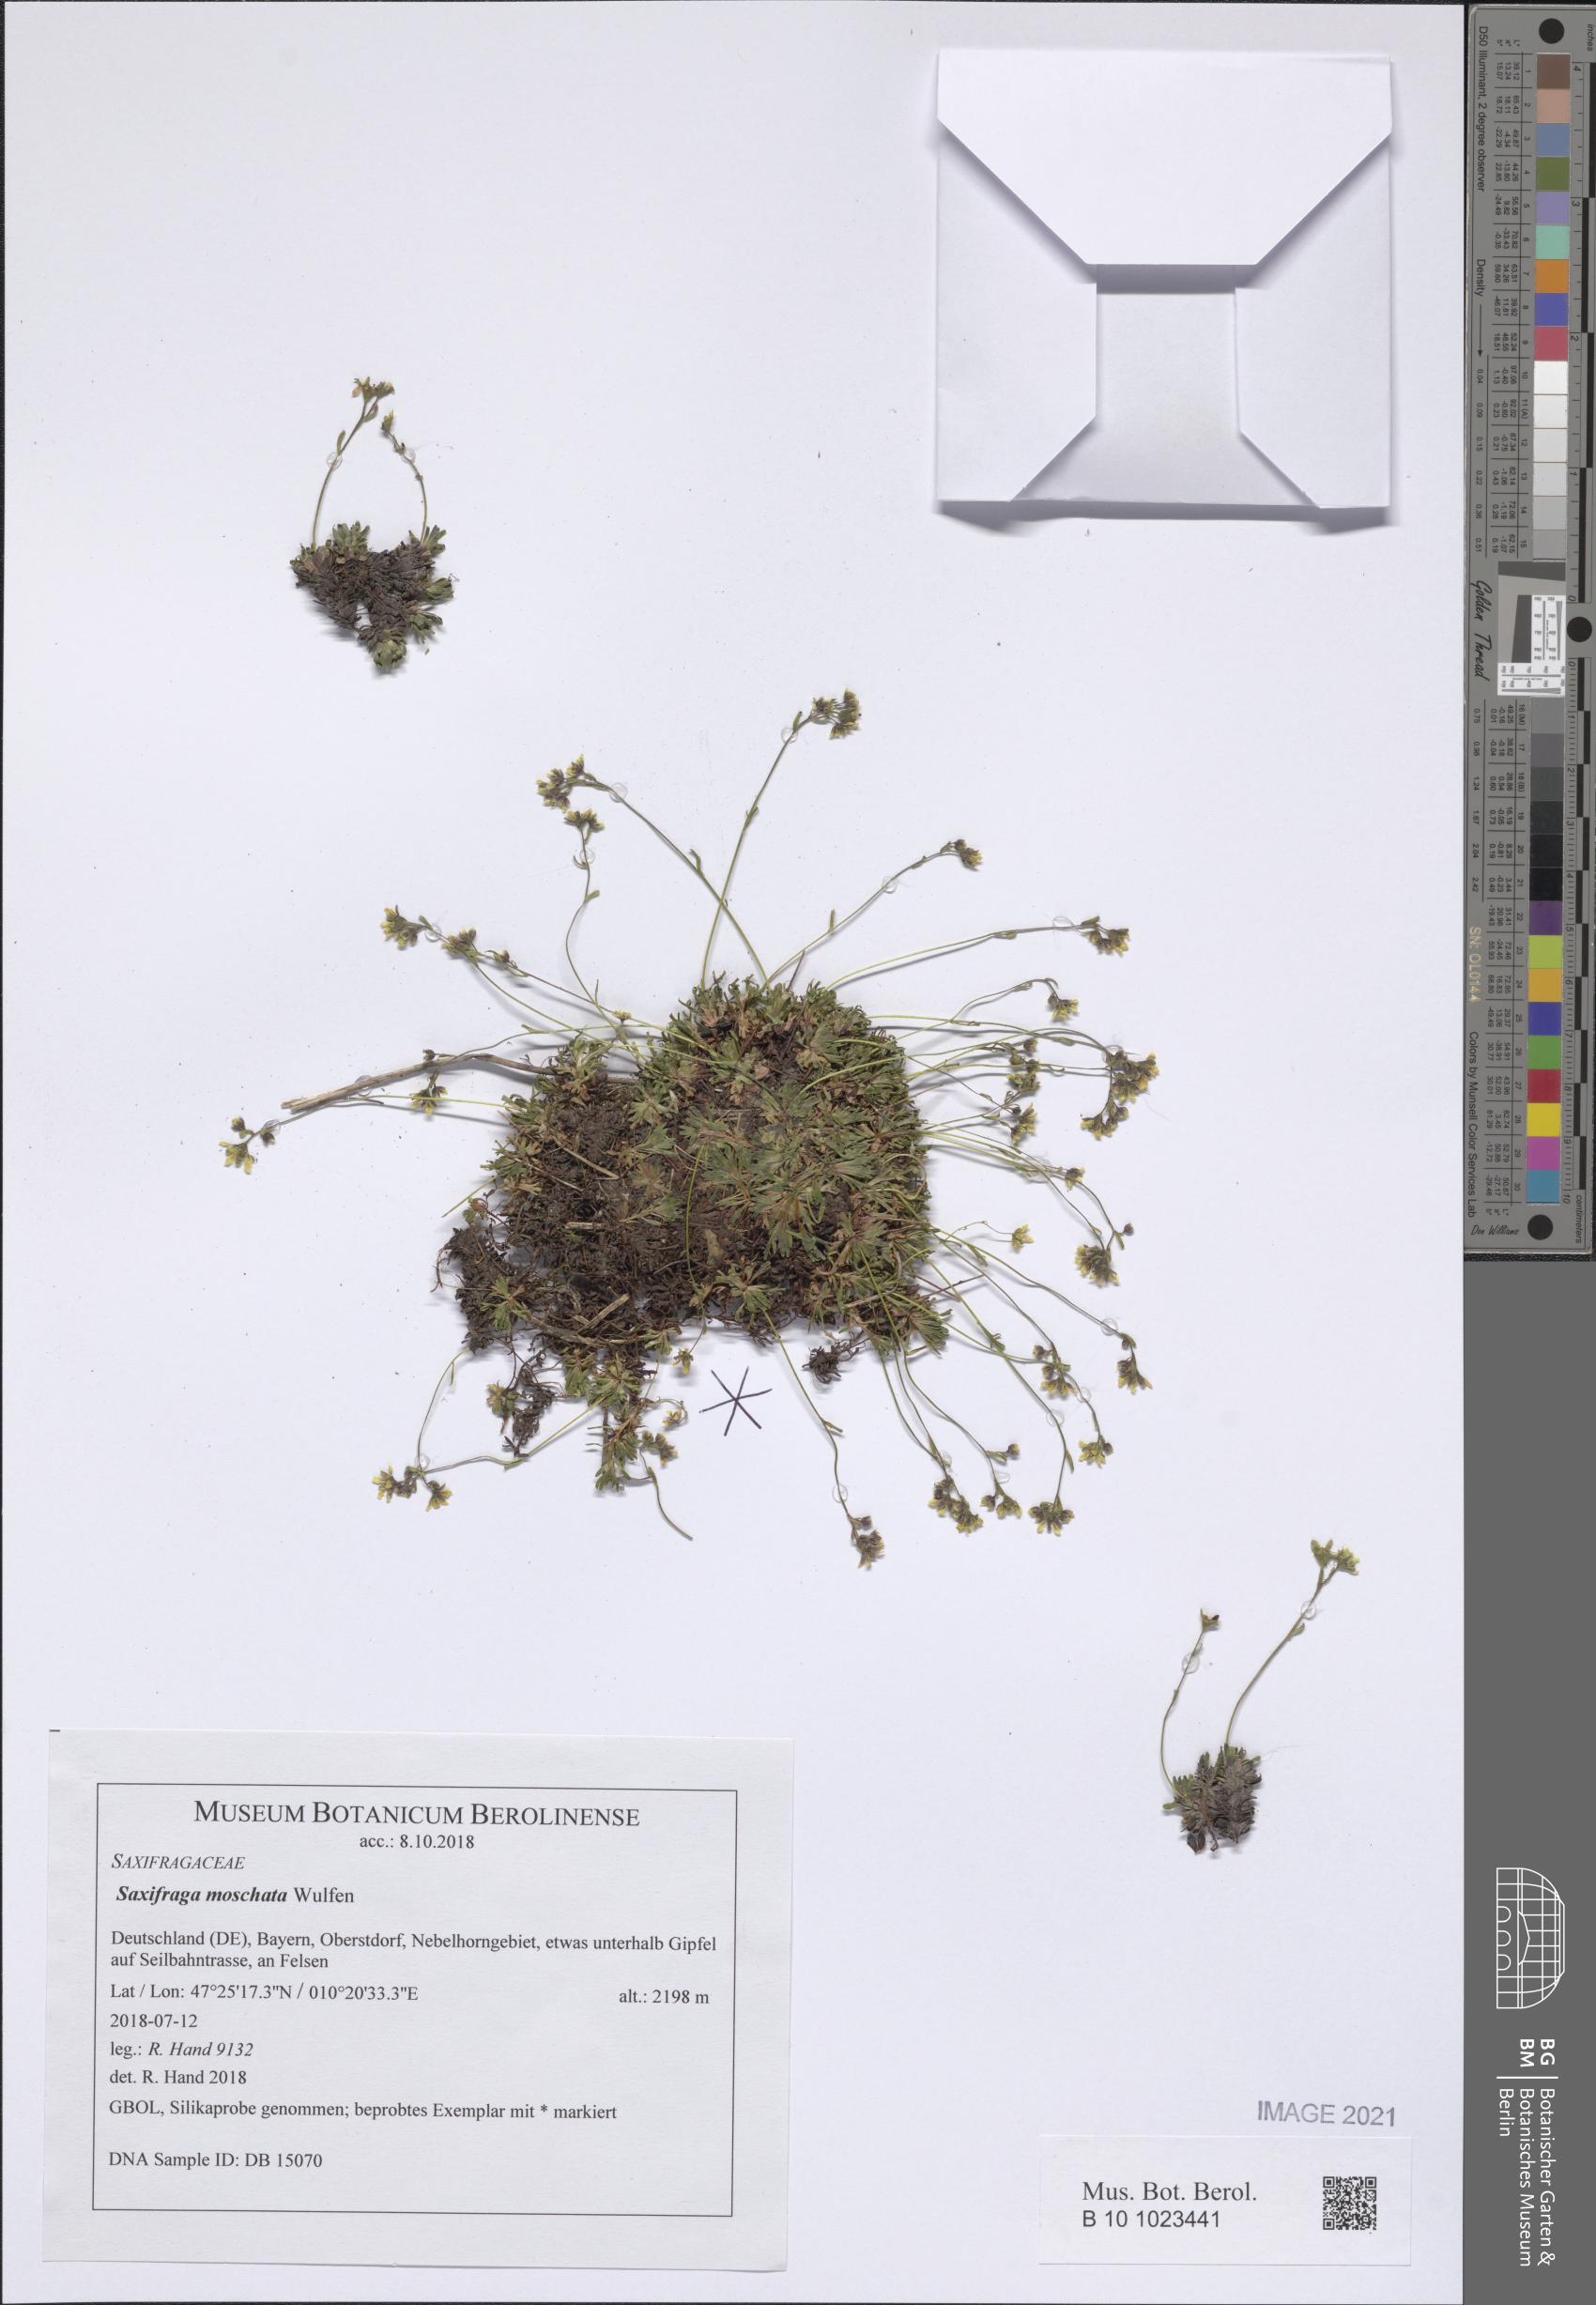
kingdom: Plantae
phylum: Tracheophyta
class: Magnoliopsida
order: Saxifragales
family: Saxifragaceae
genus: Saxifraga
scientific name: Saxifraga moschata
